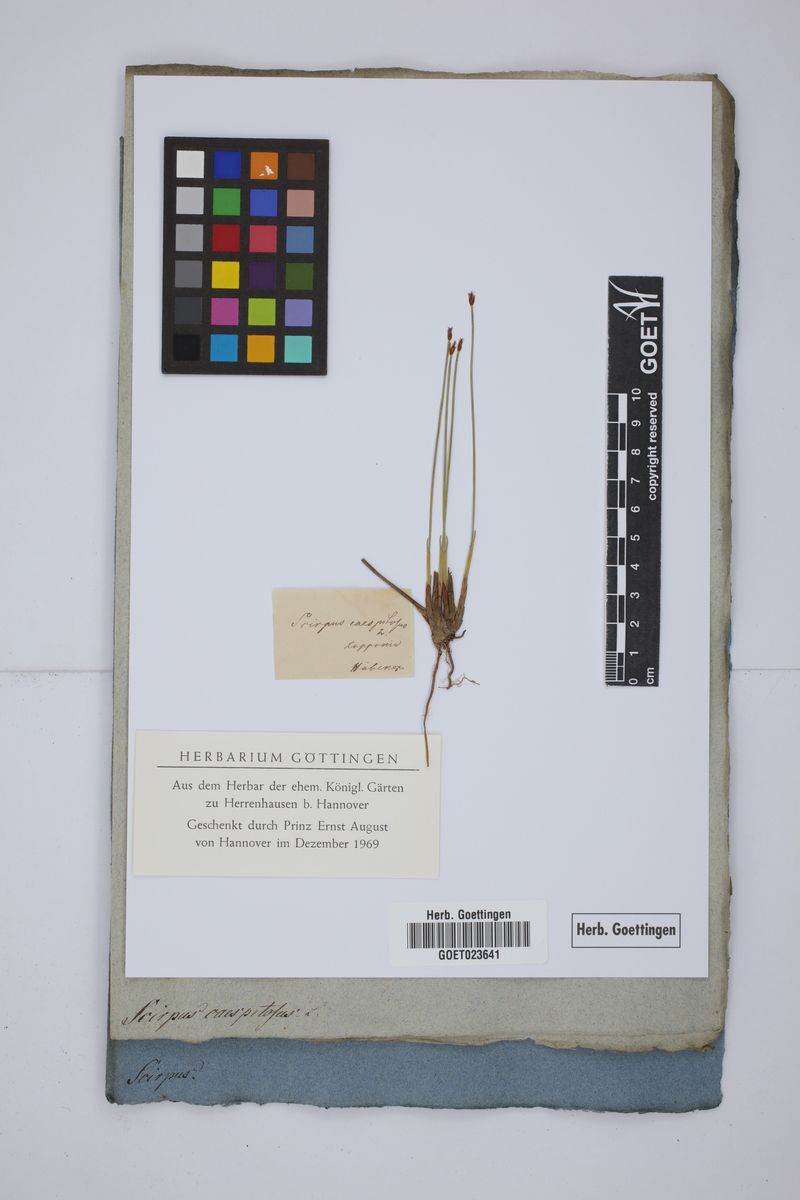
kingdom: Plantae
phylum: Tracheophyta
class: Liliopsida
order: Poales
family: Cyperaceae
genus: Trichophorum
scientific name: Trichophorum cespitosum
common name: Cespitose bulrush
